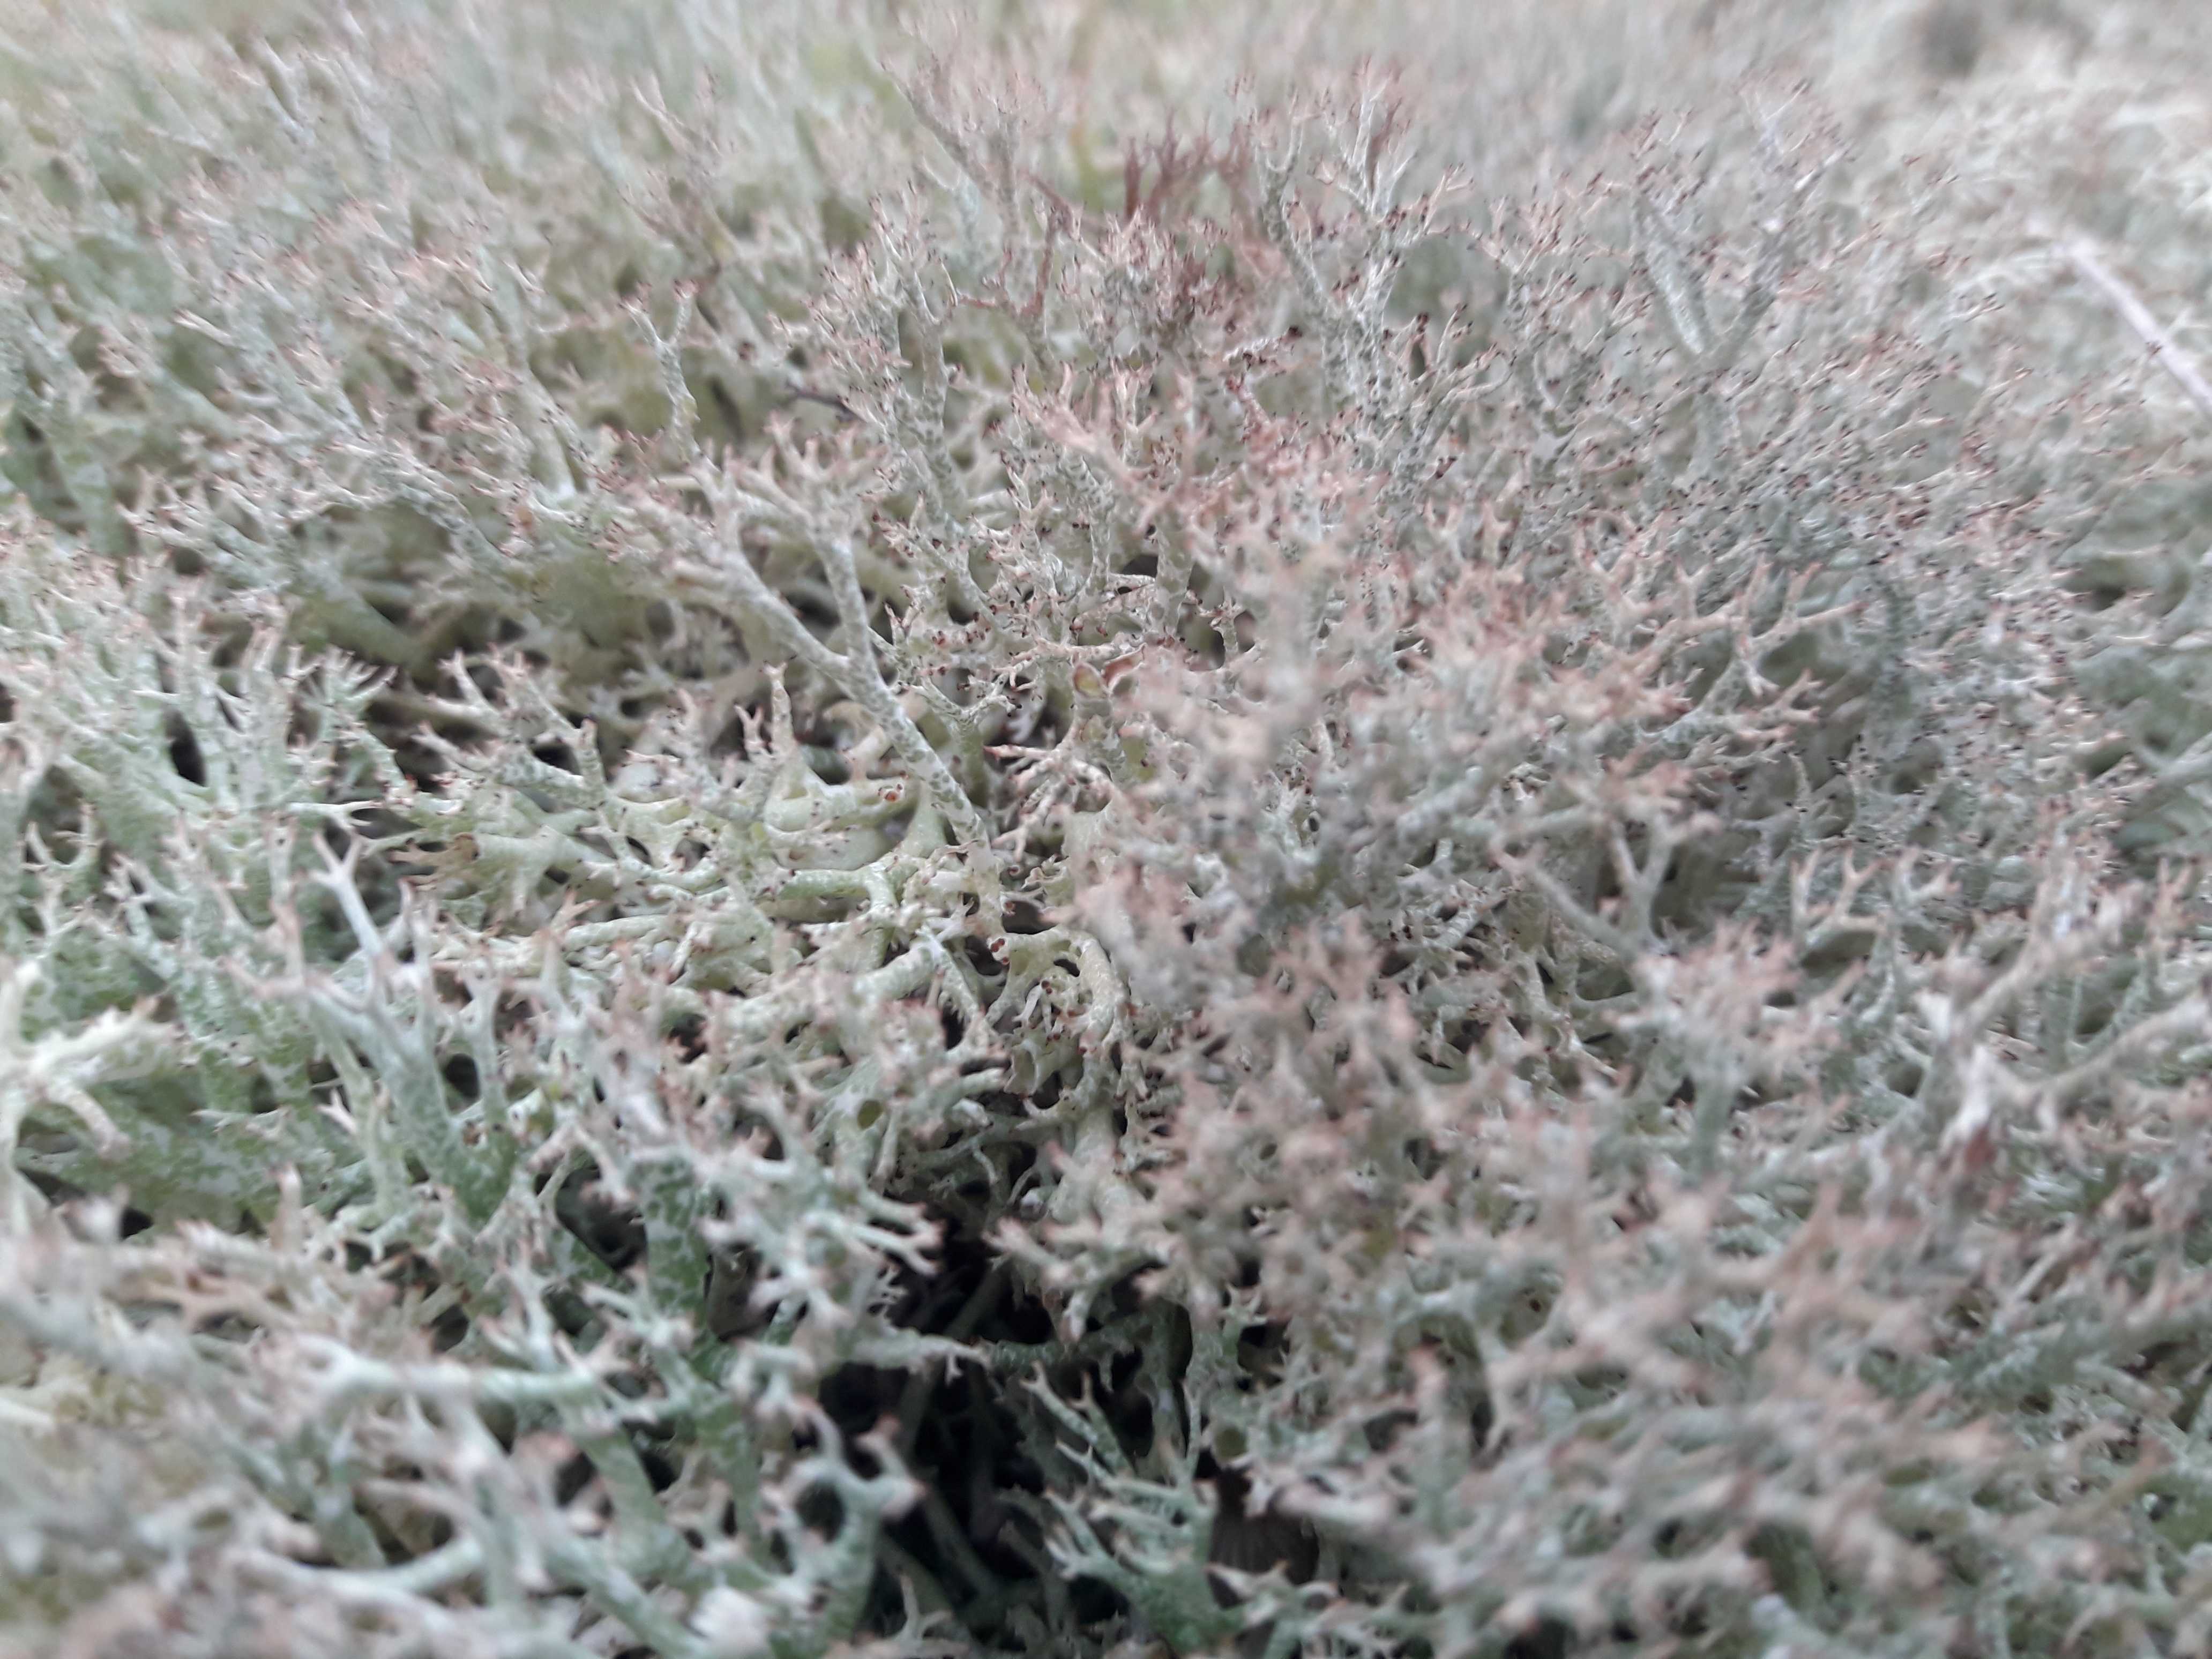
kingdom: Fungi
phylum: Ascomycota
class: Lecanoromycetes
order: Lecanorales
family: Cladoniaceae
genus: Cladonia
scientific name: Cladonia rangiformis
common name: spættet bægerlav
